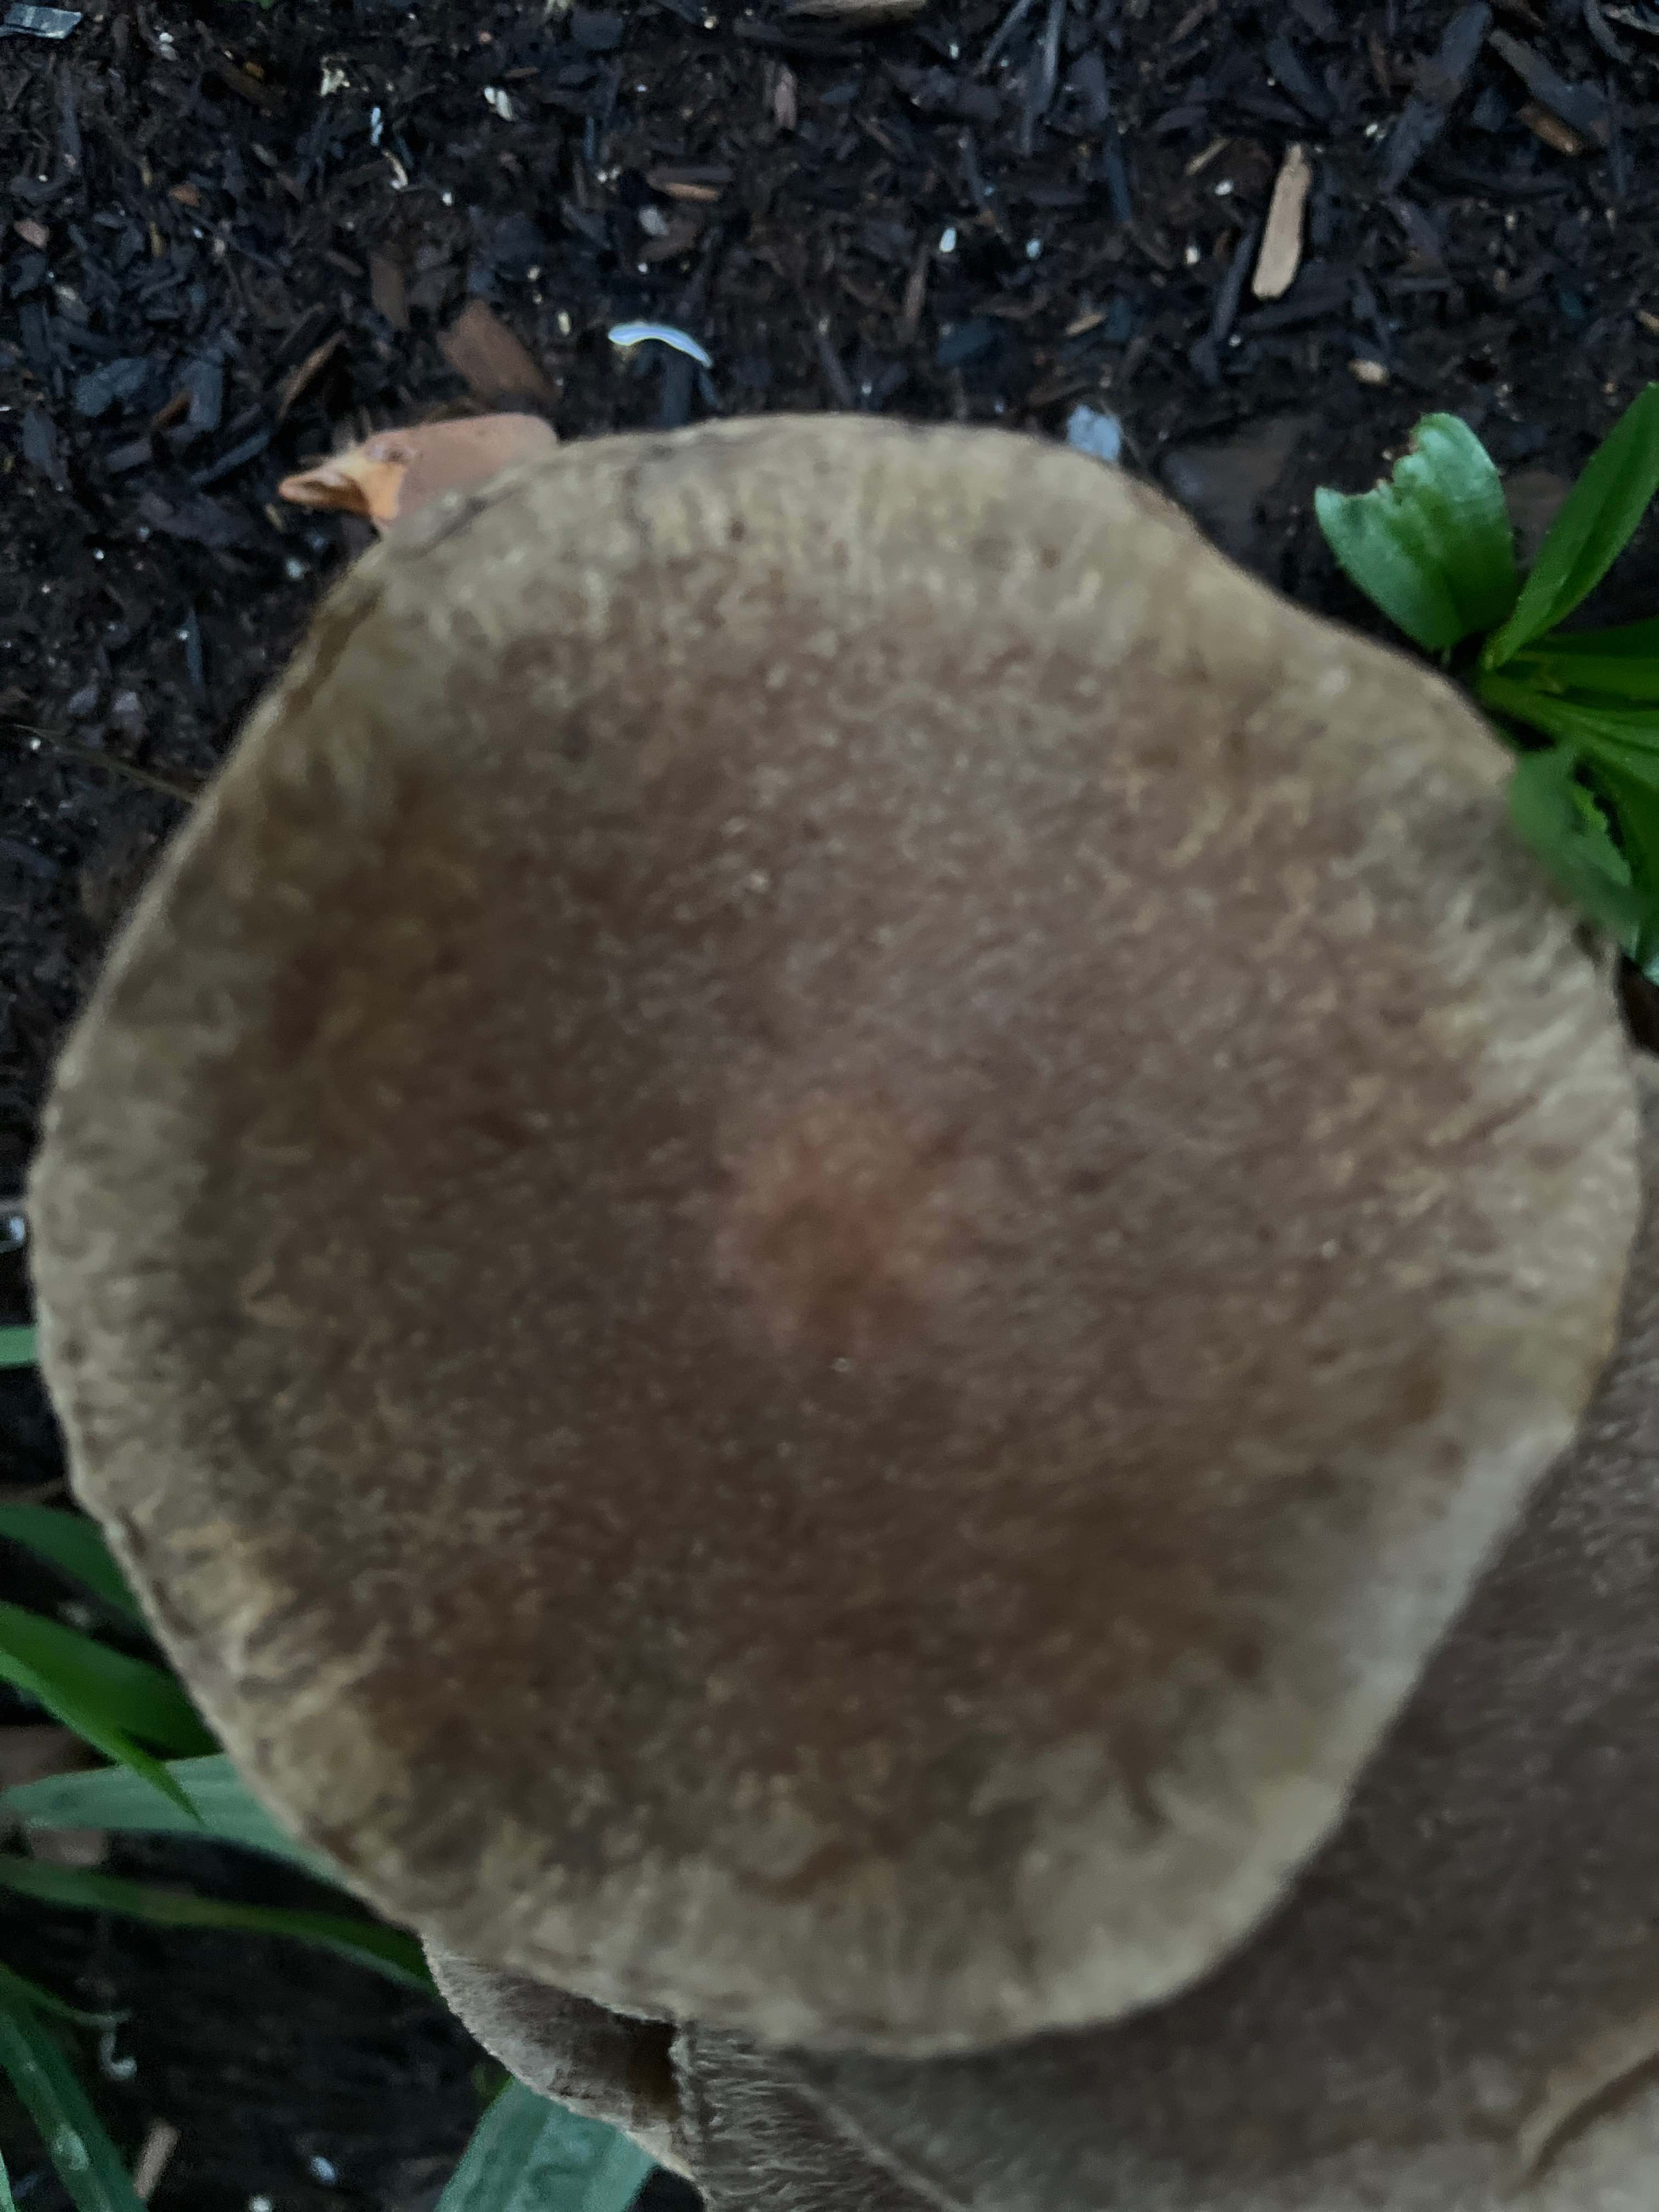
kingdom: Fungi
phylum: Basidiomycota
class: Agaricomycetes
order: Agaricales
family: Psathyrellaceae
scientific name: Psathyrellaceae
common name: mørkhatfamilien
